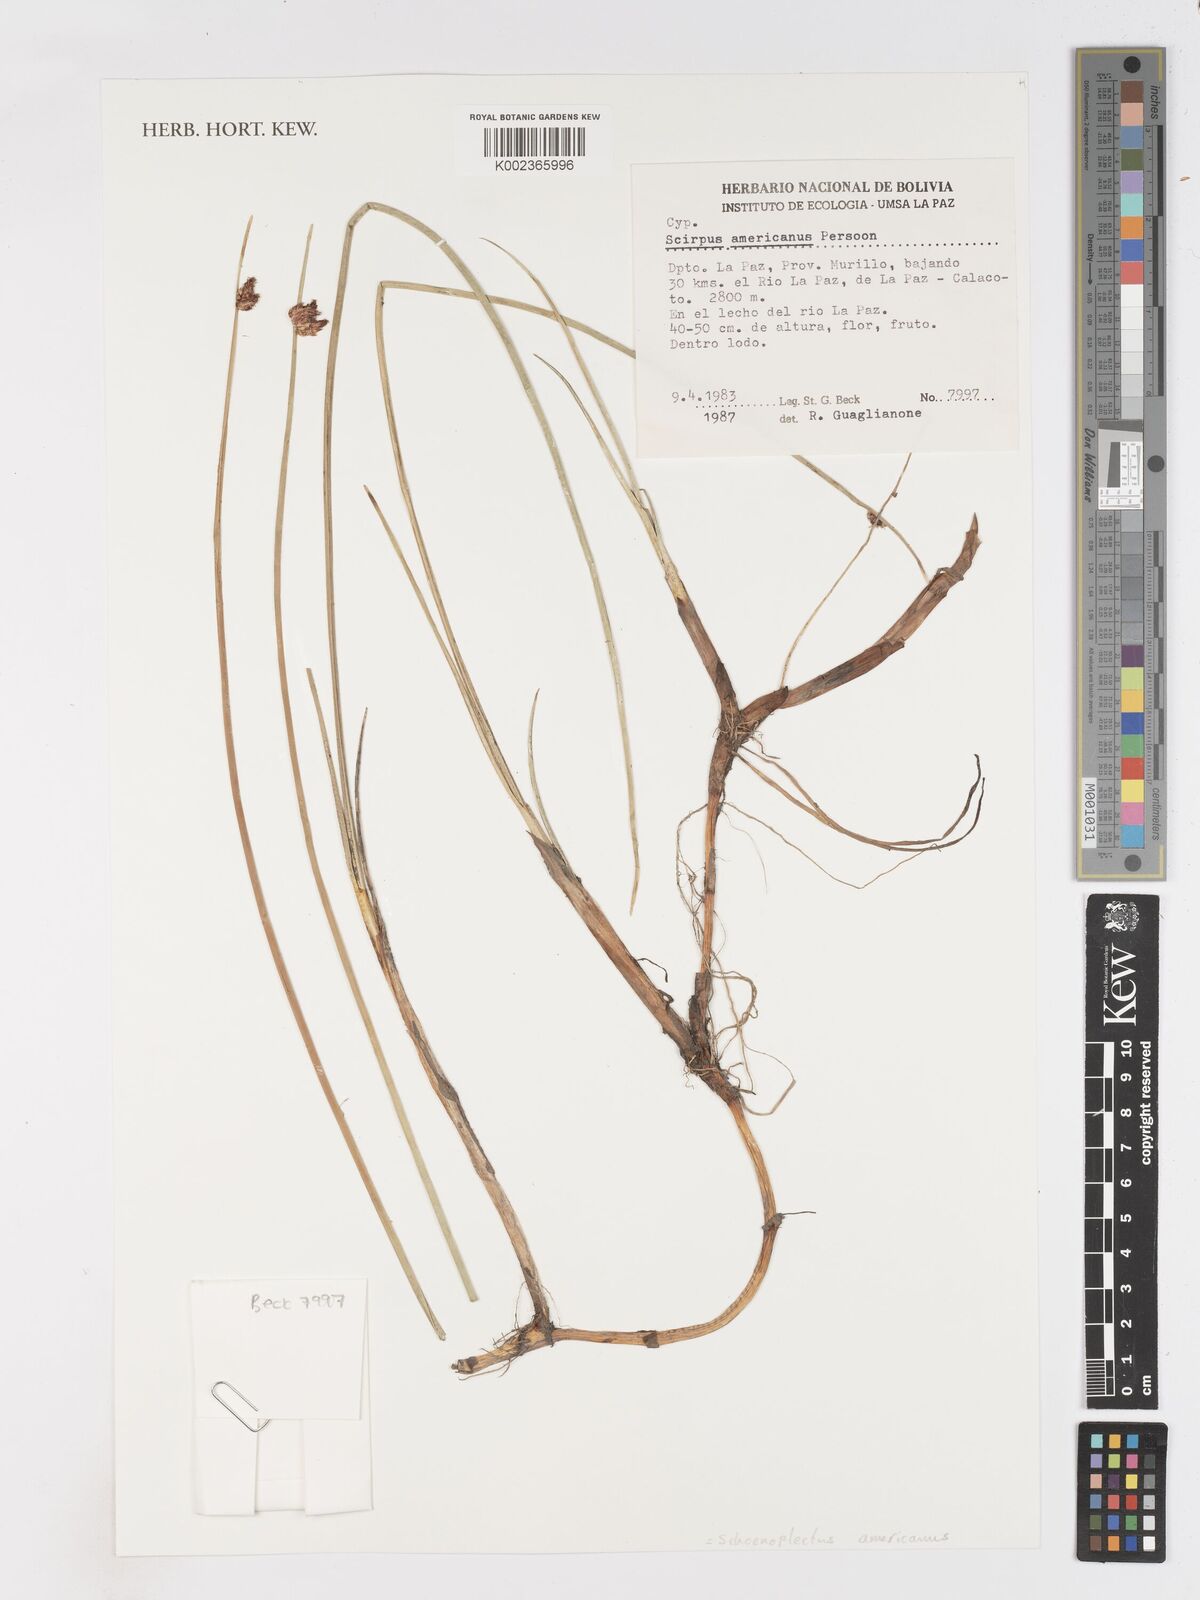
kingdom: Plantae
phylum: Tracheophyta
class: Liliopsida
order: Poales
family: Cyperaceae
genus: Schoenoplectus
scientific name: Schoenoplectus americanus
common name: American three-square bulrush
